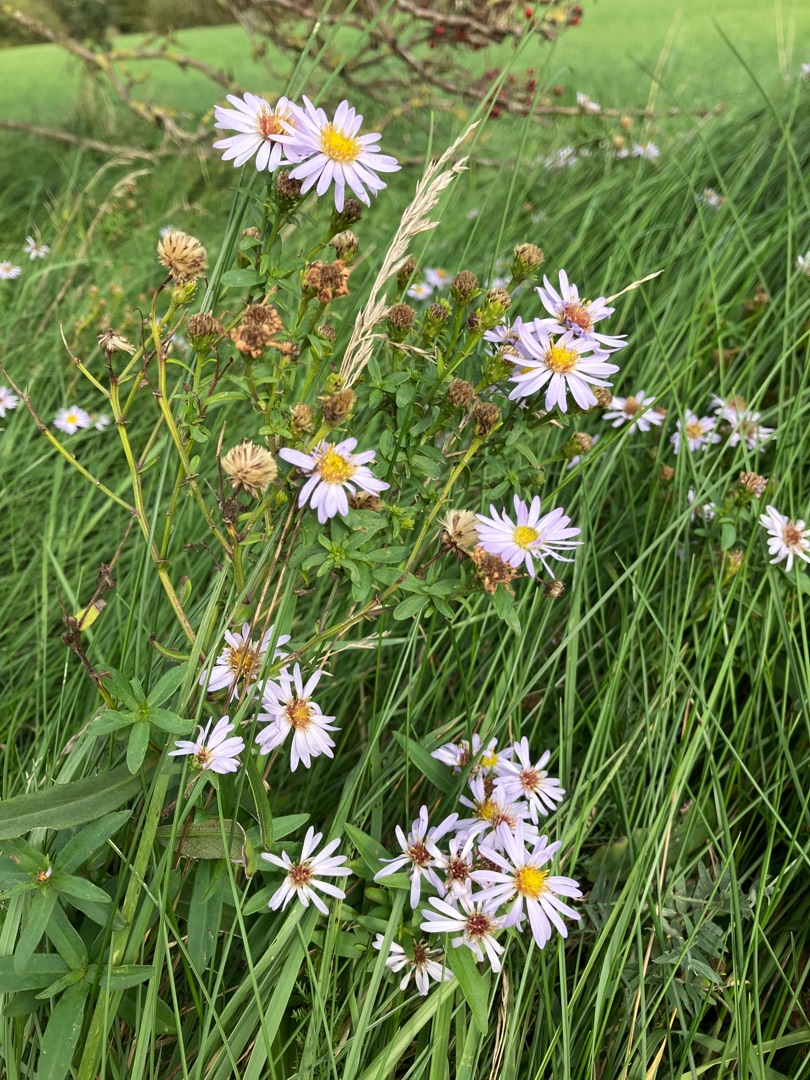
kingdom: Plantae
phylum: Tracheophyta
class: Magnoliopsida
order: Asterales
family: Asteraceae
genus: Symphyotrichum
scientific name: Symphyotrichum
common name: Asters (Symphyotrichum-slægten)
